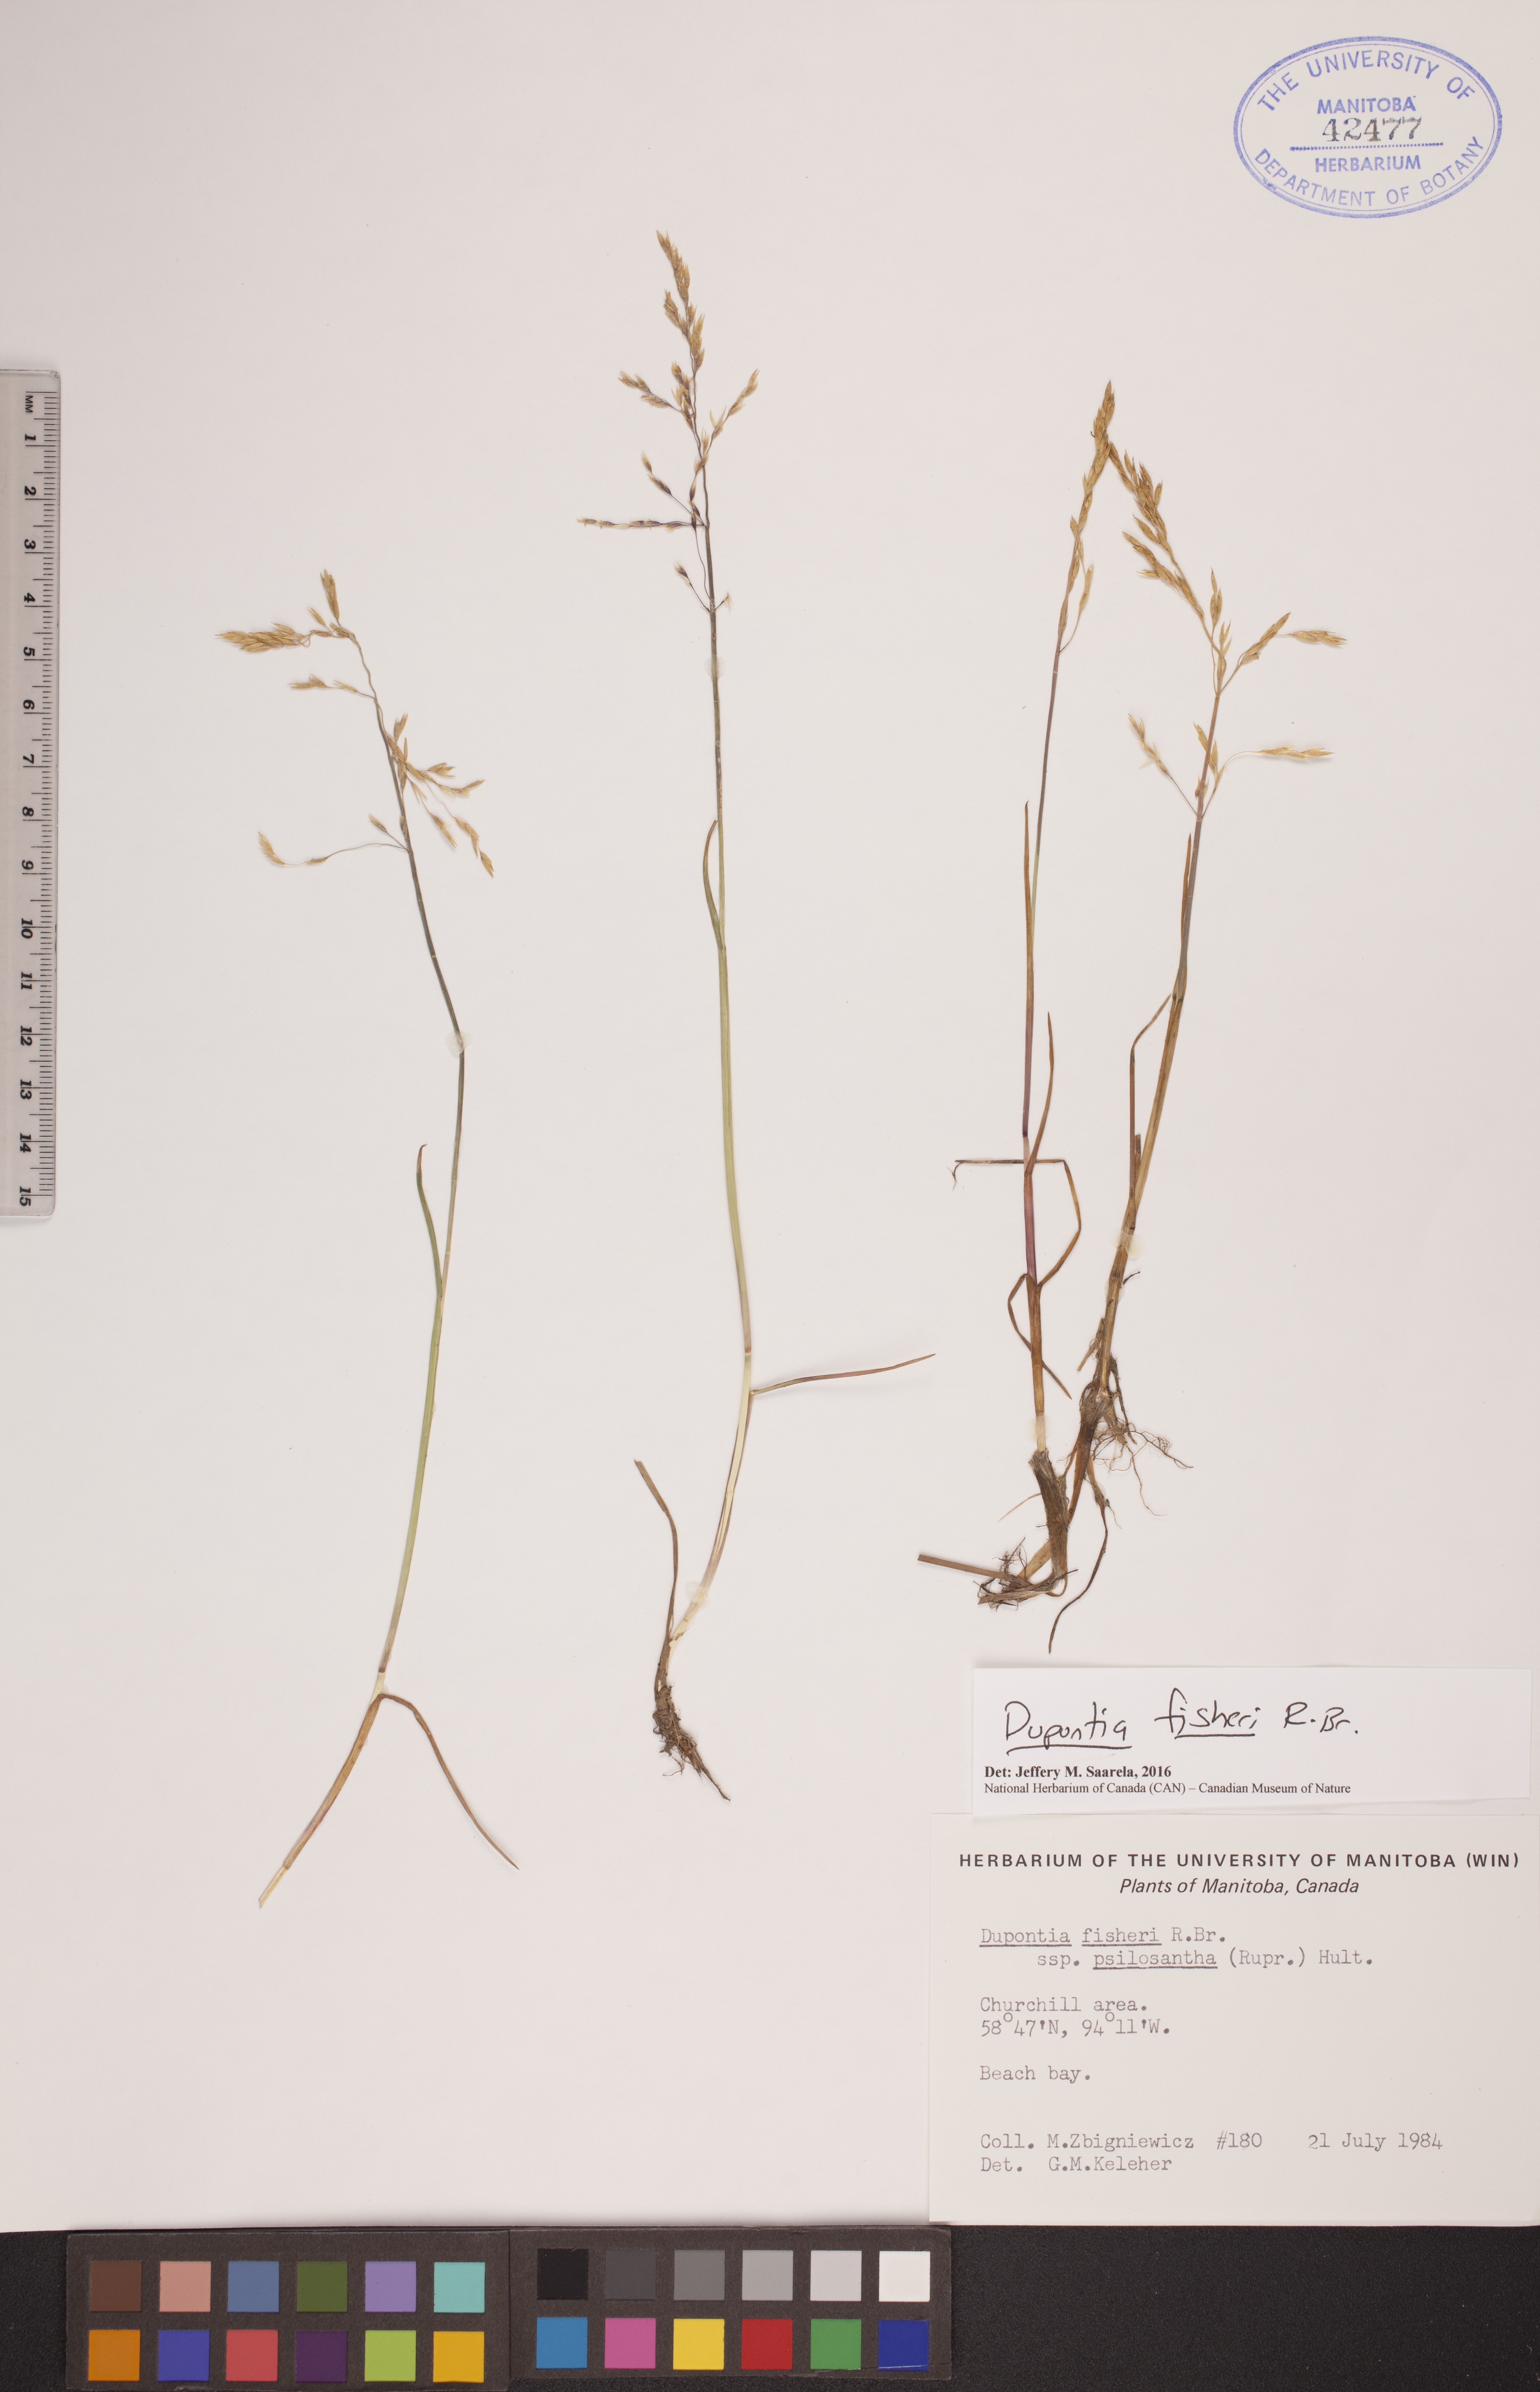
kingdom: Plantae
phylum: Tracheophyta
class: Liliopsida
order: Poales
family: Poaceae
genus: Dupontia
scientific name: Dupontia fisheri
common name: Tundra grass
